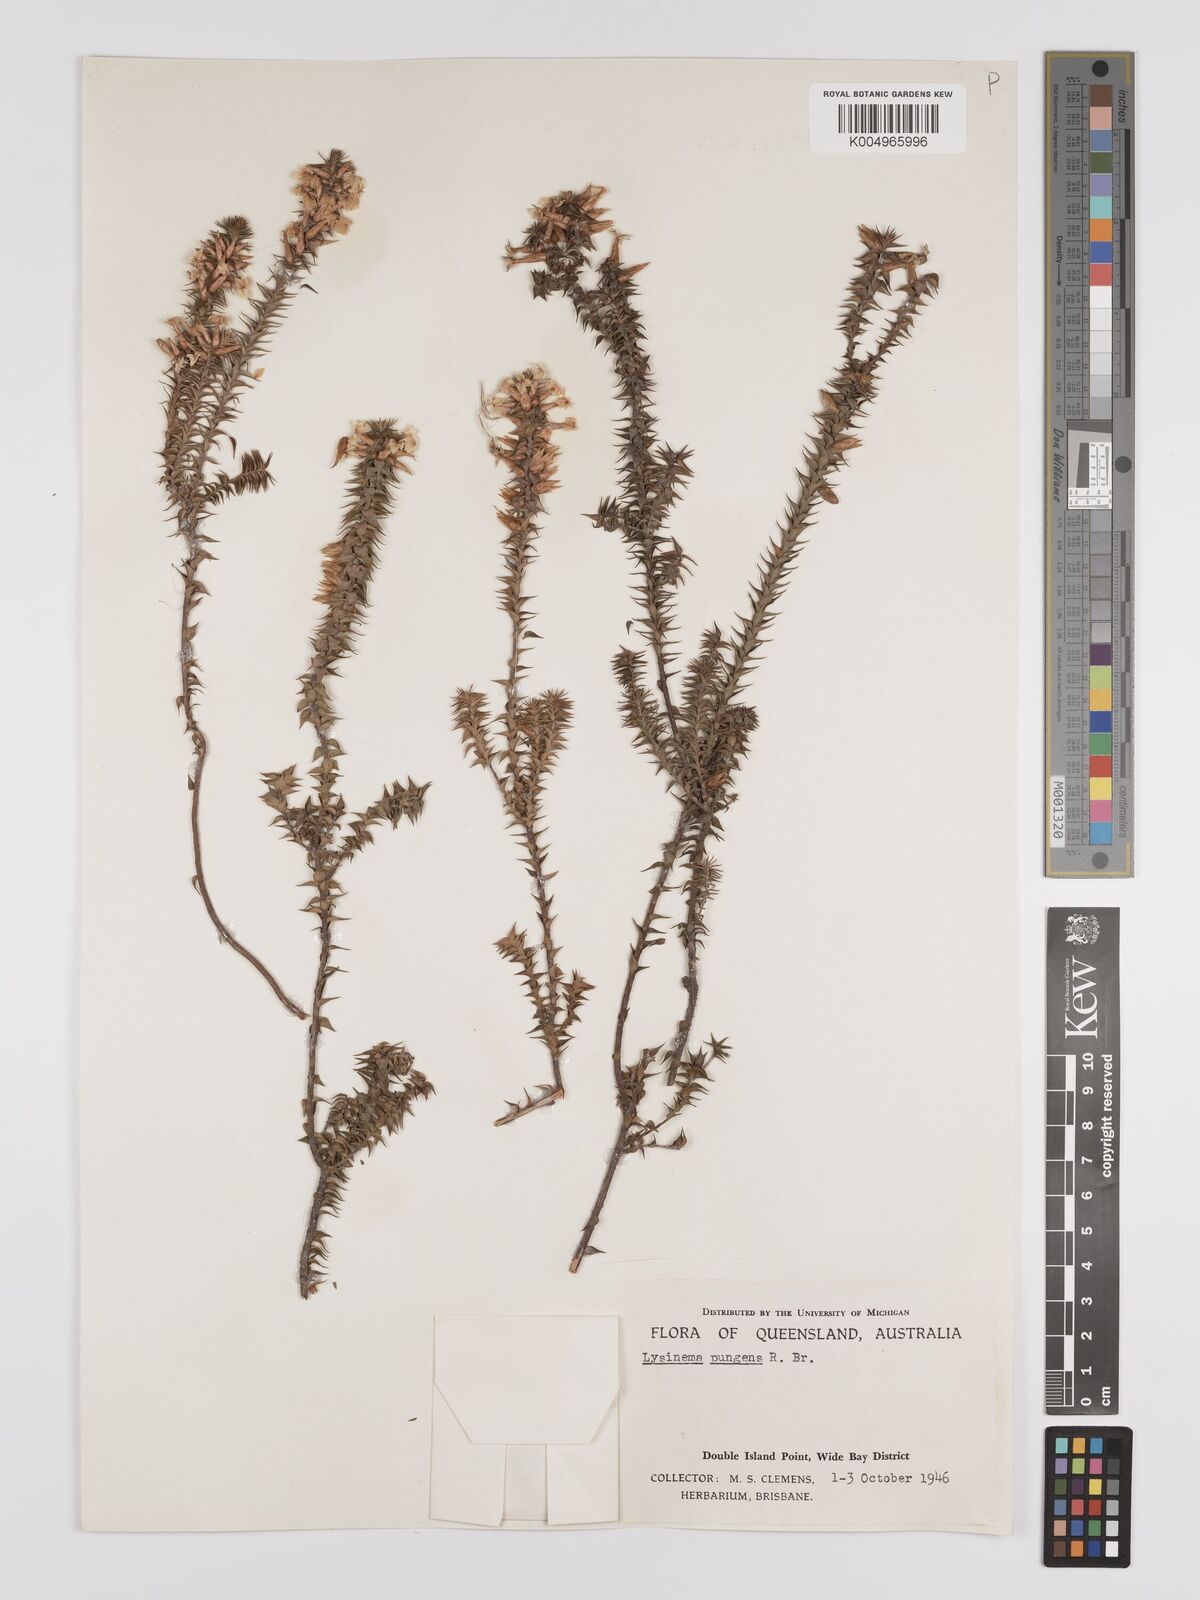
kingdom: Plantae
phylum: Tracheophyta
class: Magnoliopsida
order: Ericales
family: Ericaceae
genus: Woollsia
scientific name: Woollsia pungens
